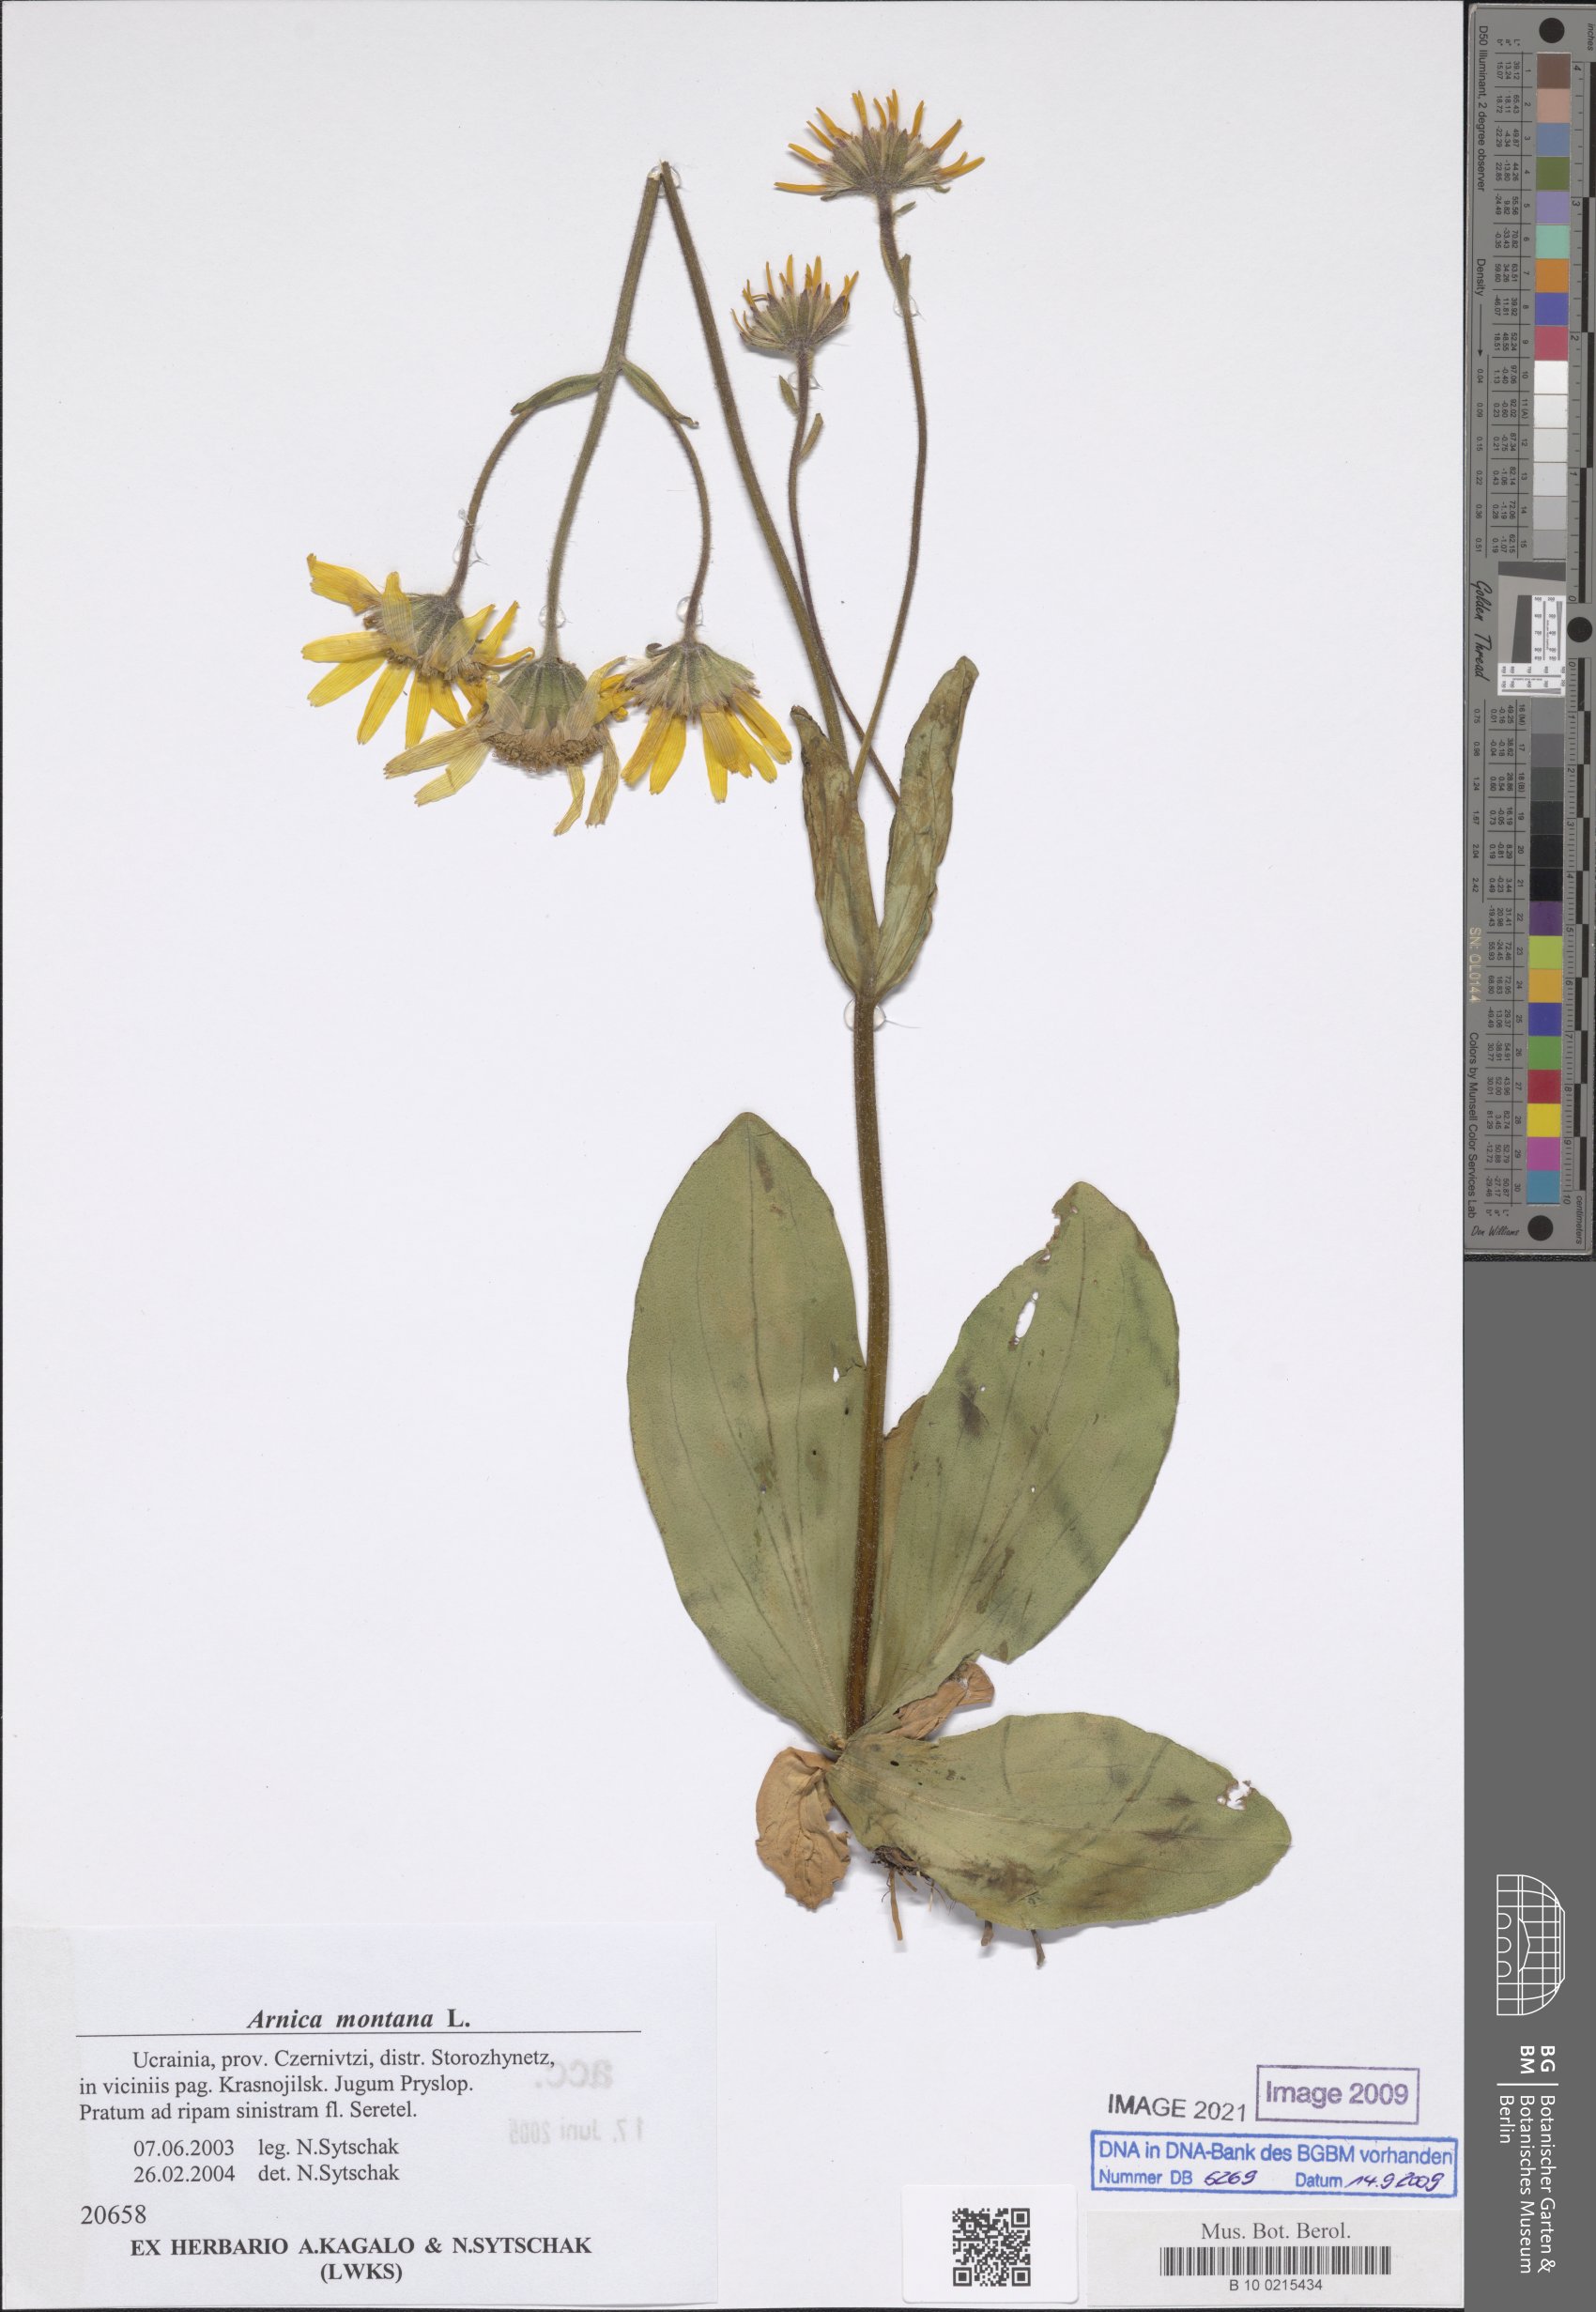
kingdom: Plantae
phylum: Tracheophyta
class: Magnoliopsida
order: Asterales
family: Asteraceae
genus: Arnica
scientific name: Arnica montana
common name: Leopard's bane
